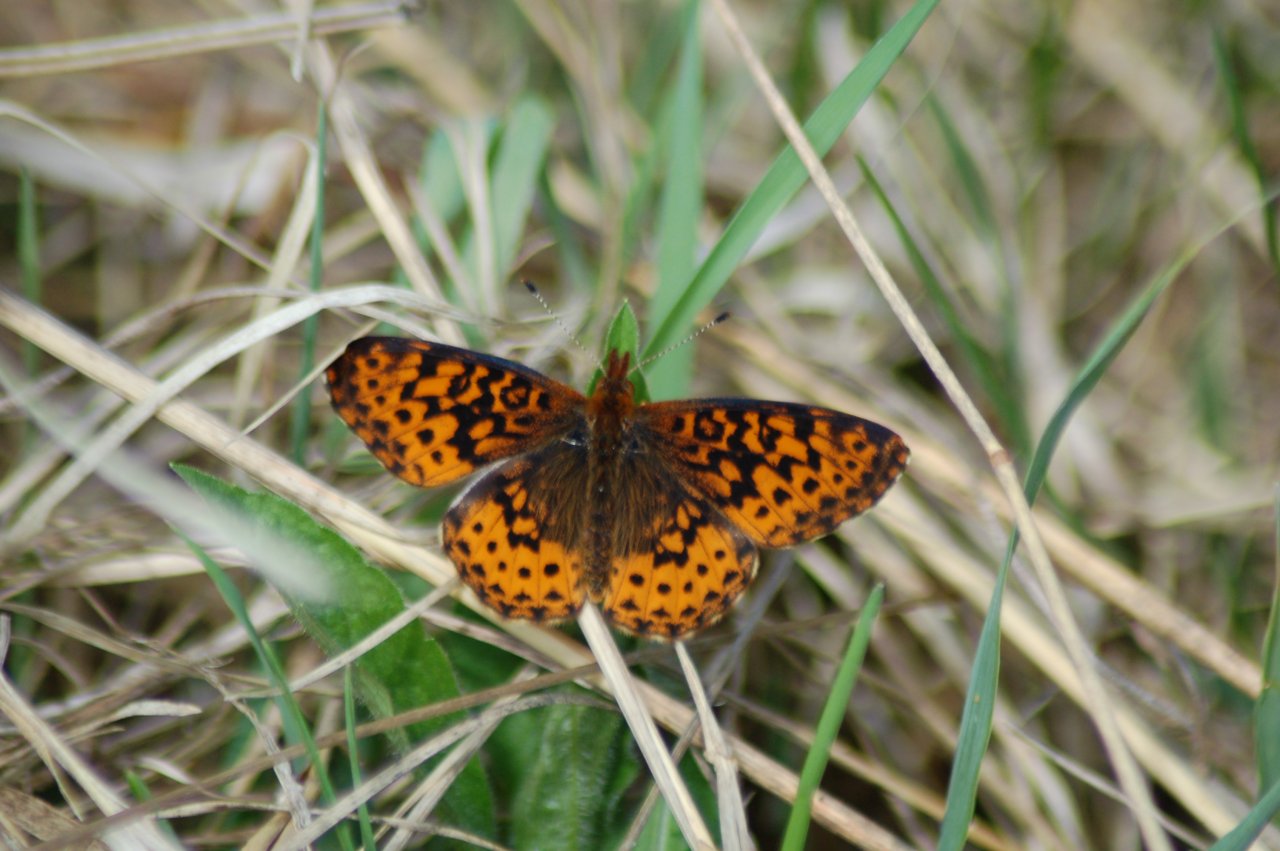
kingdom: Animalia
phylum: Arthropoda
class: Insecta
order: Lepidoptera
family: Nymphalidae
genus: Clossiana
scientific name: Clossiana toddi
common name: Meadow Fritillary
